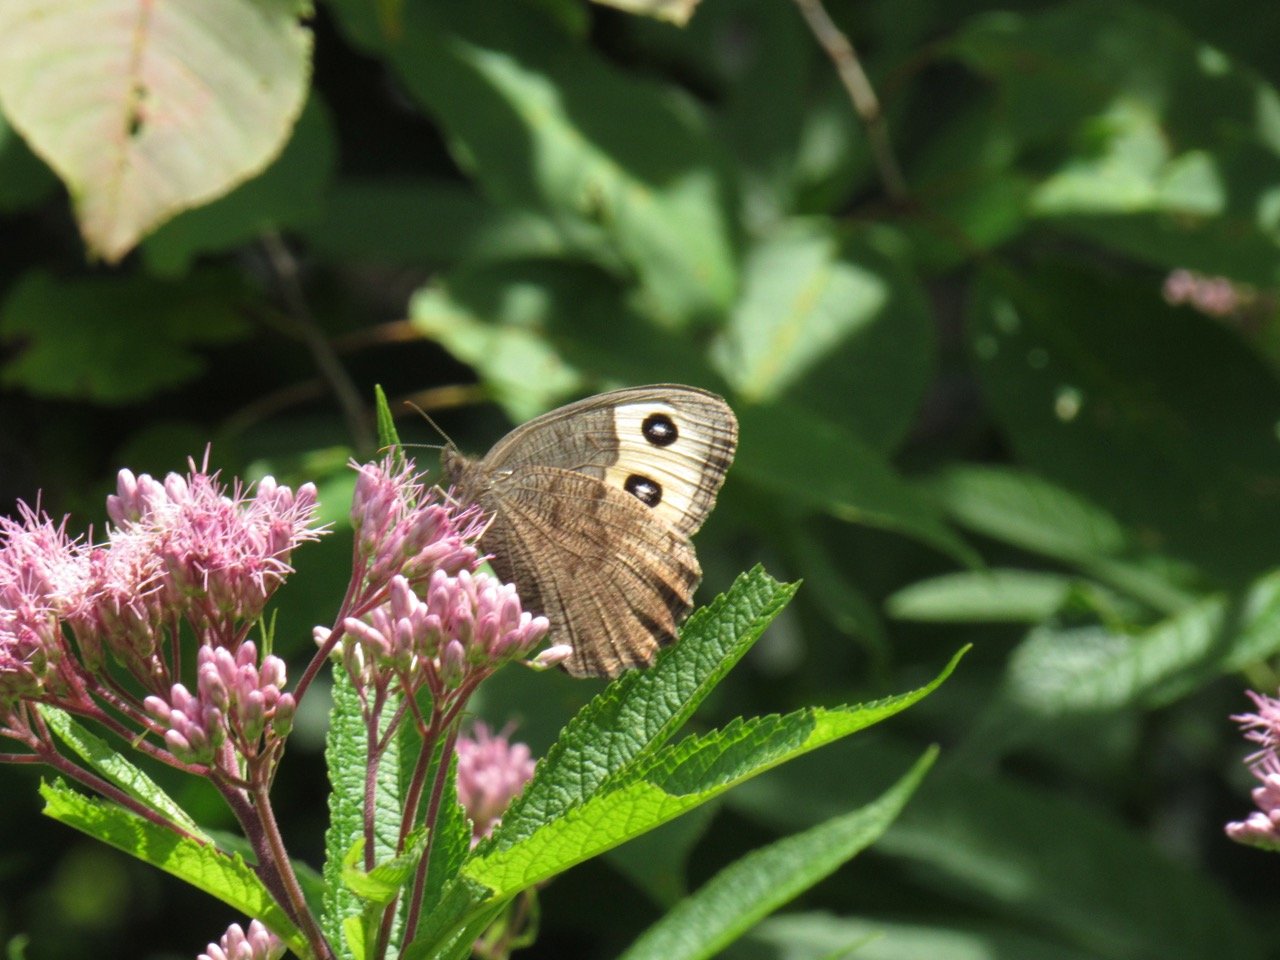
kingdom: Animalia
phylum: Arthropoda
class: Insecta
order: Lepidoptera
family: Nymphalidae
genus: Cercyonis
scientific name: Cercyonis pegala
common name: Common Wood-Nymph
